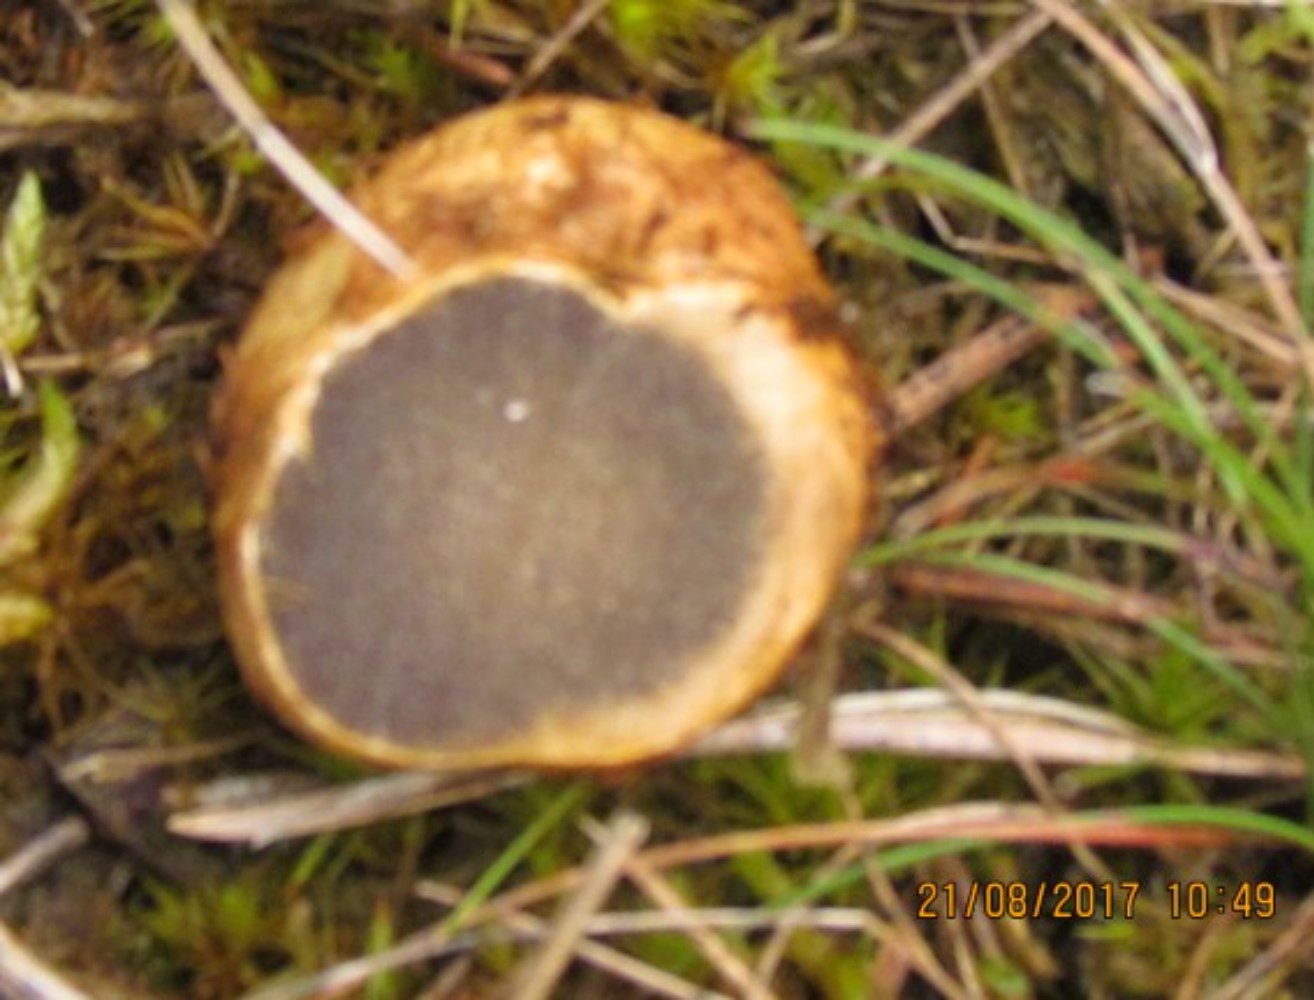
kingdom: Fungi
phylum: Basidiomycota
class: Agaricomycetes
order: Boletales
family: Rhizopogonaceae
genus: Rhizopogon
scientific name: Rhizopogon obtextus
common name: gul skægtrøffel
